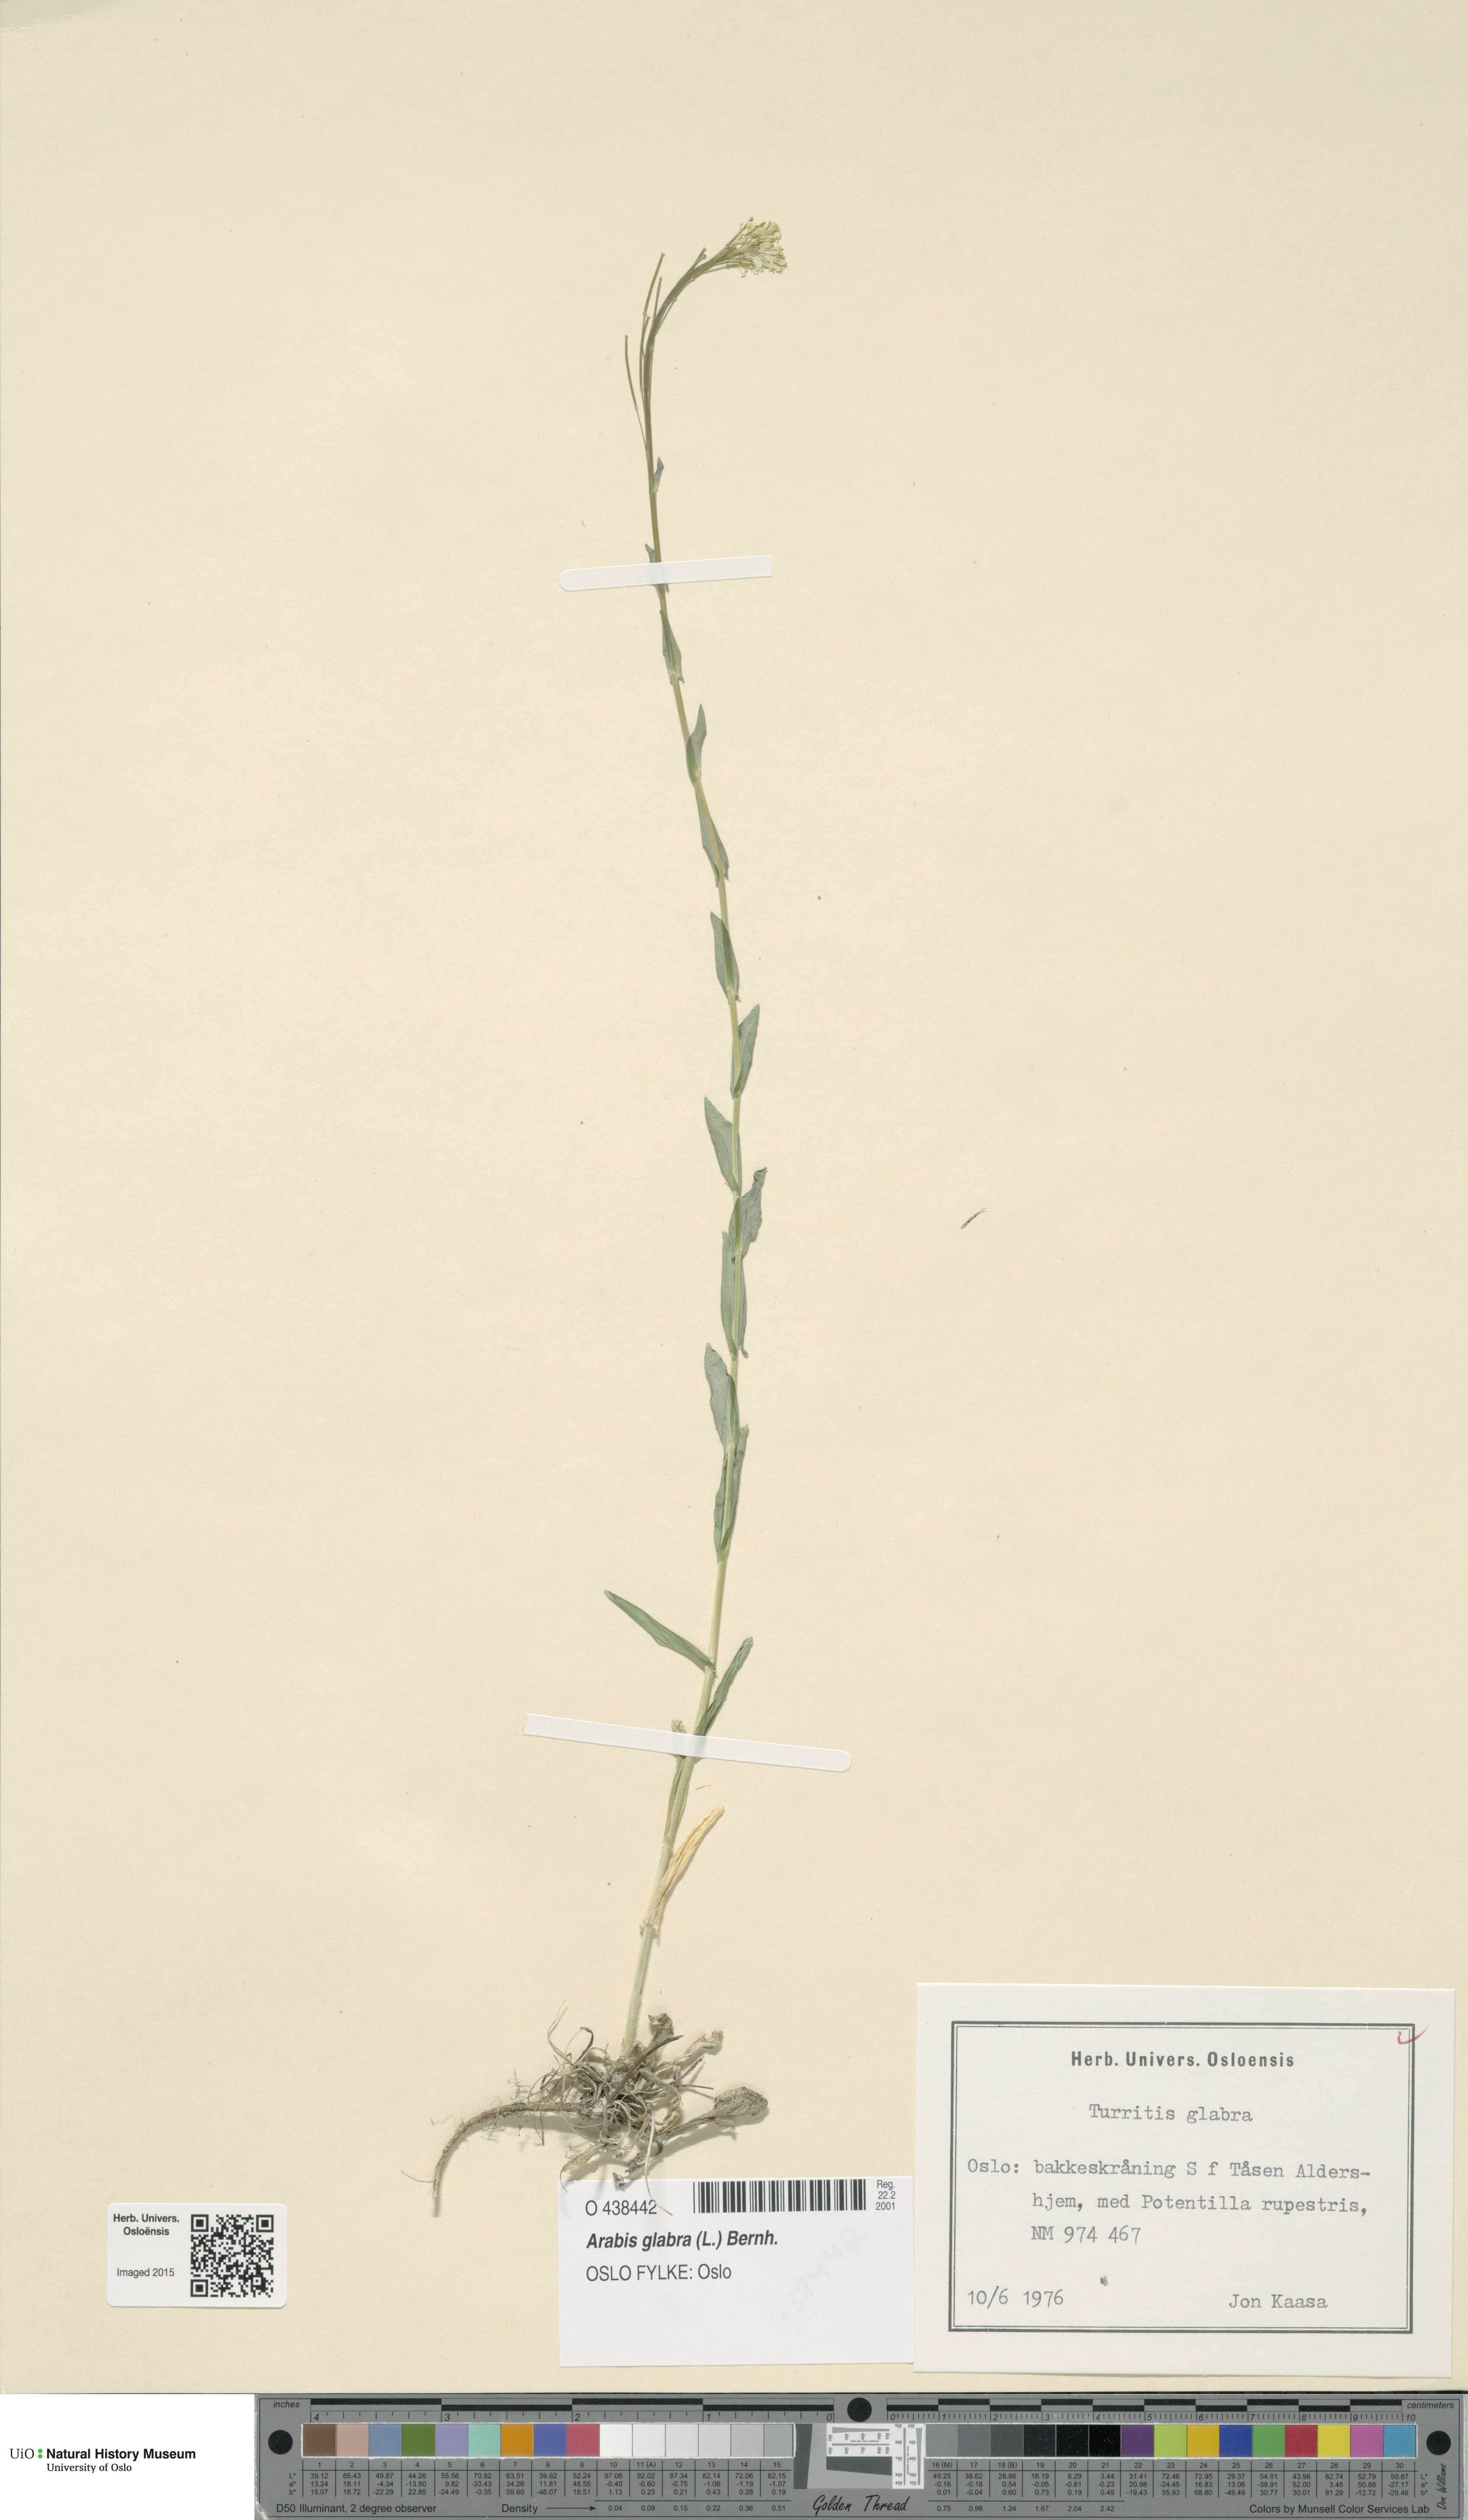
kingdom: Plantae
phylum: Tracheophyta
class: Magnoliopsida
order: Brassicales
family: Brassicaceae
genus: Turritis
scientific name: Turritis glabra
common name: Tower rockcress
